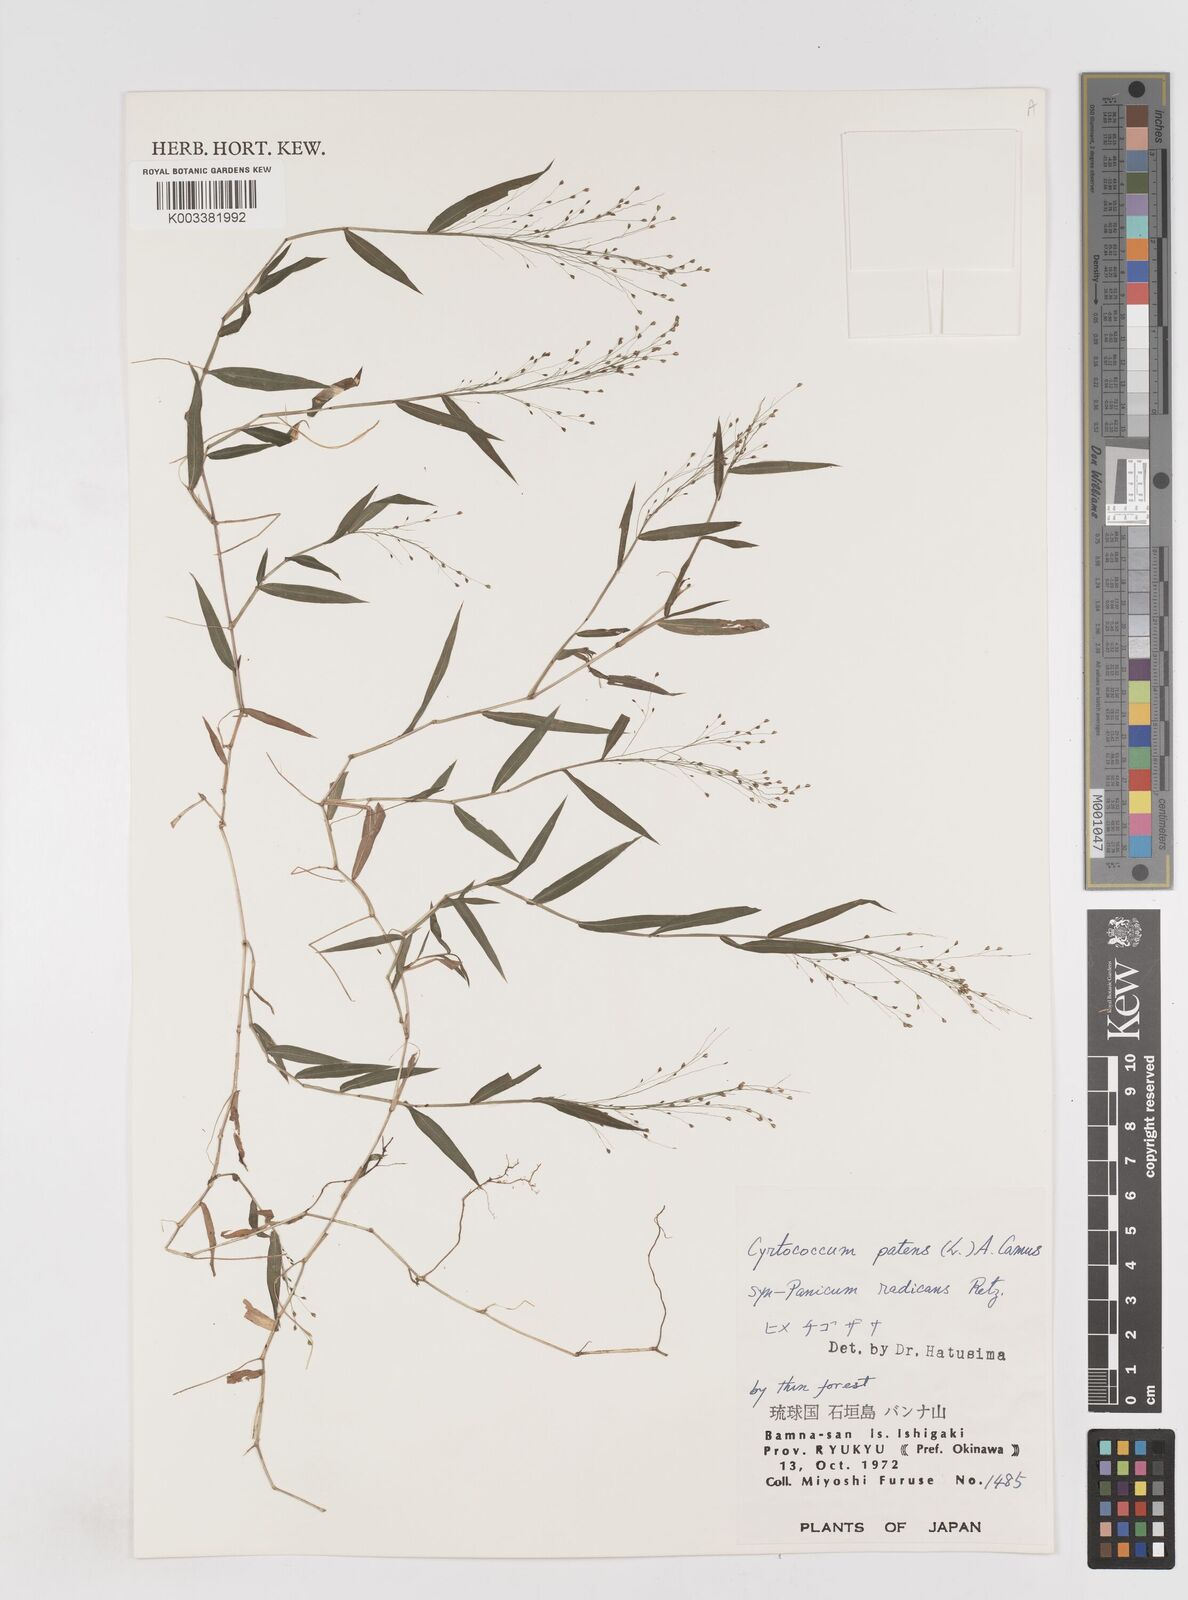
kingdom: Plantae
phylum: Tracheophyta
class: Liliopsida
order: Poales
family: Poaceae
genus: Cyrtococcum
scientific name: Cyrtococcum patens
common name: Broad-leaved bowgrass
